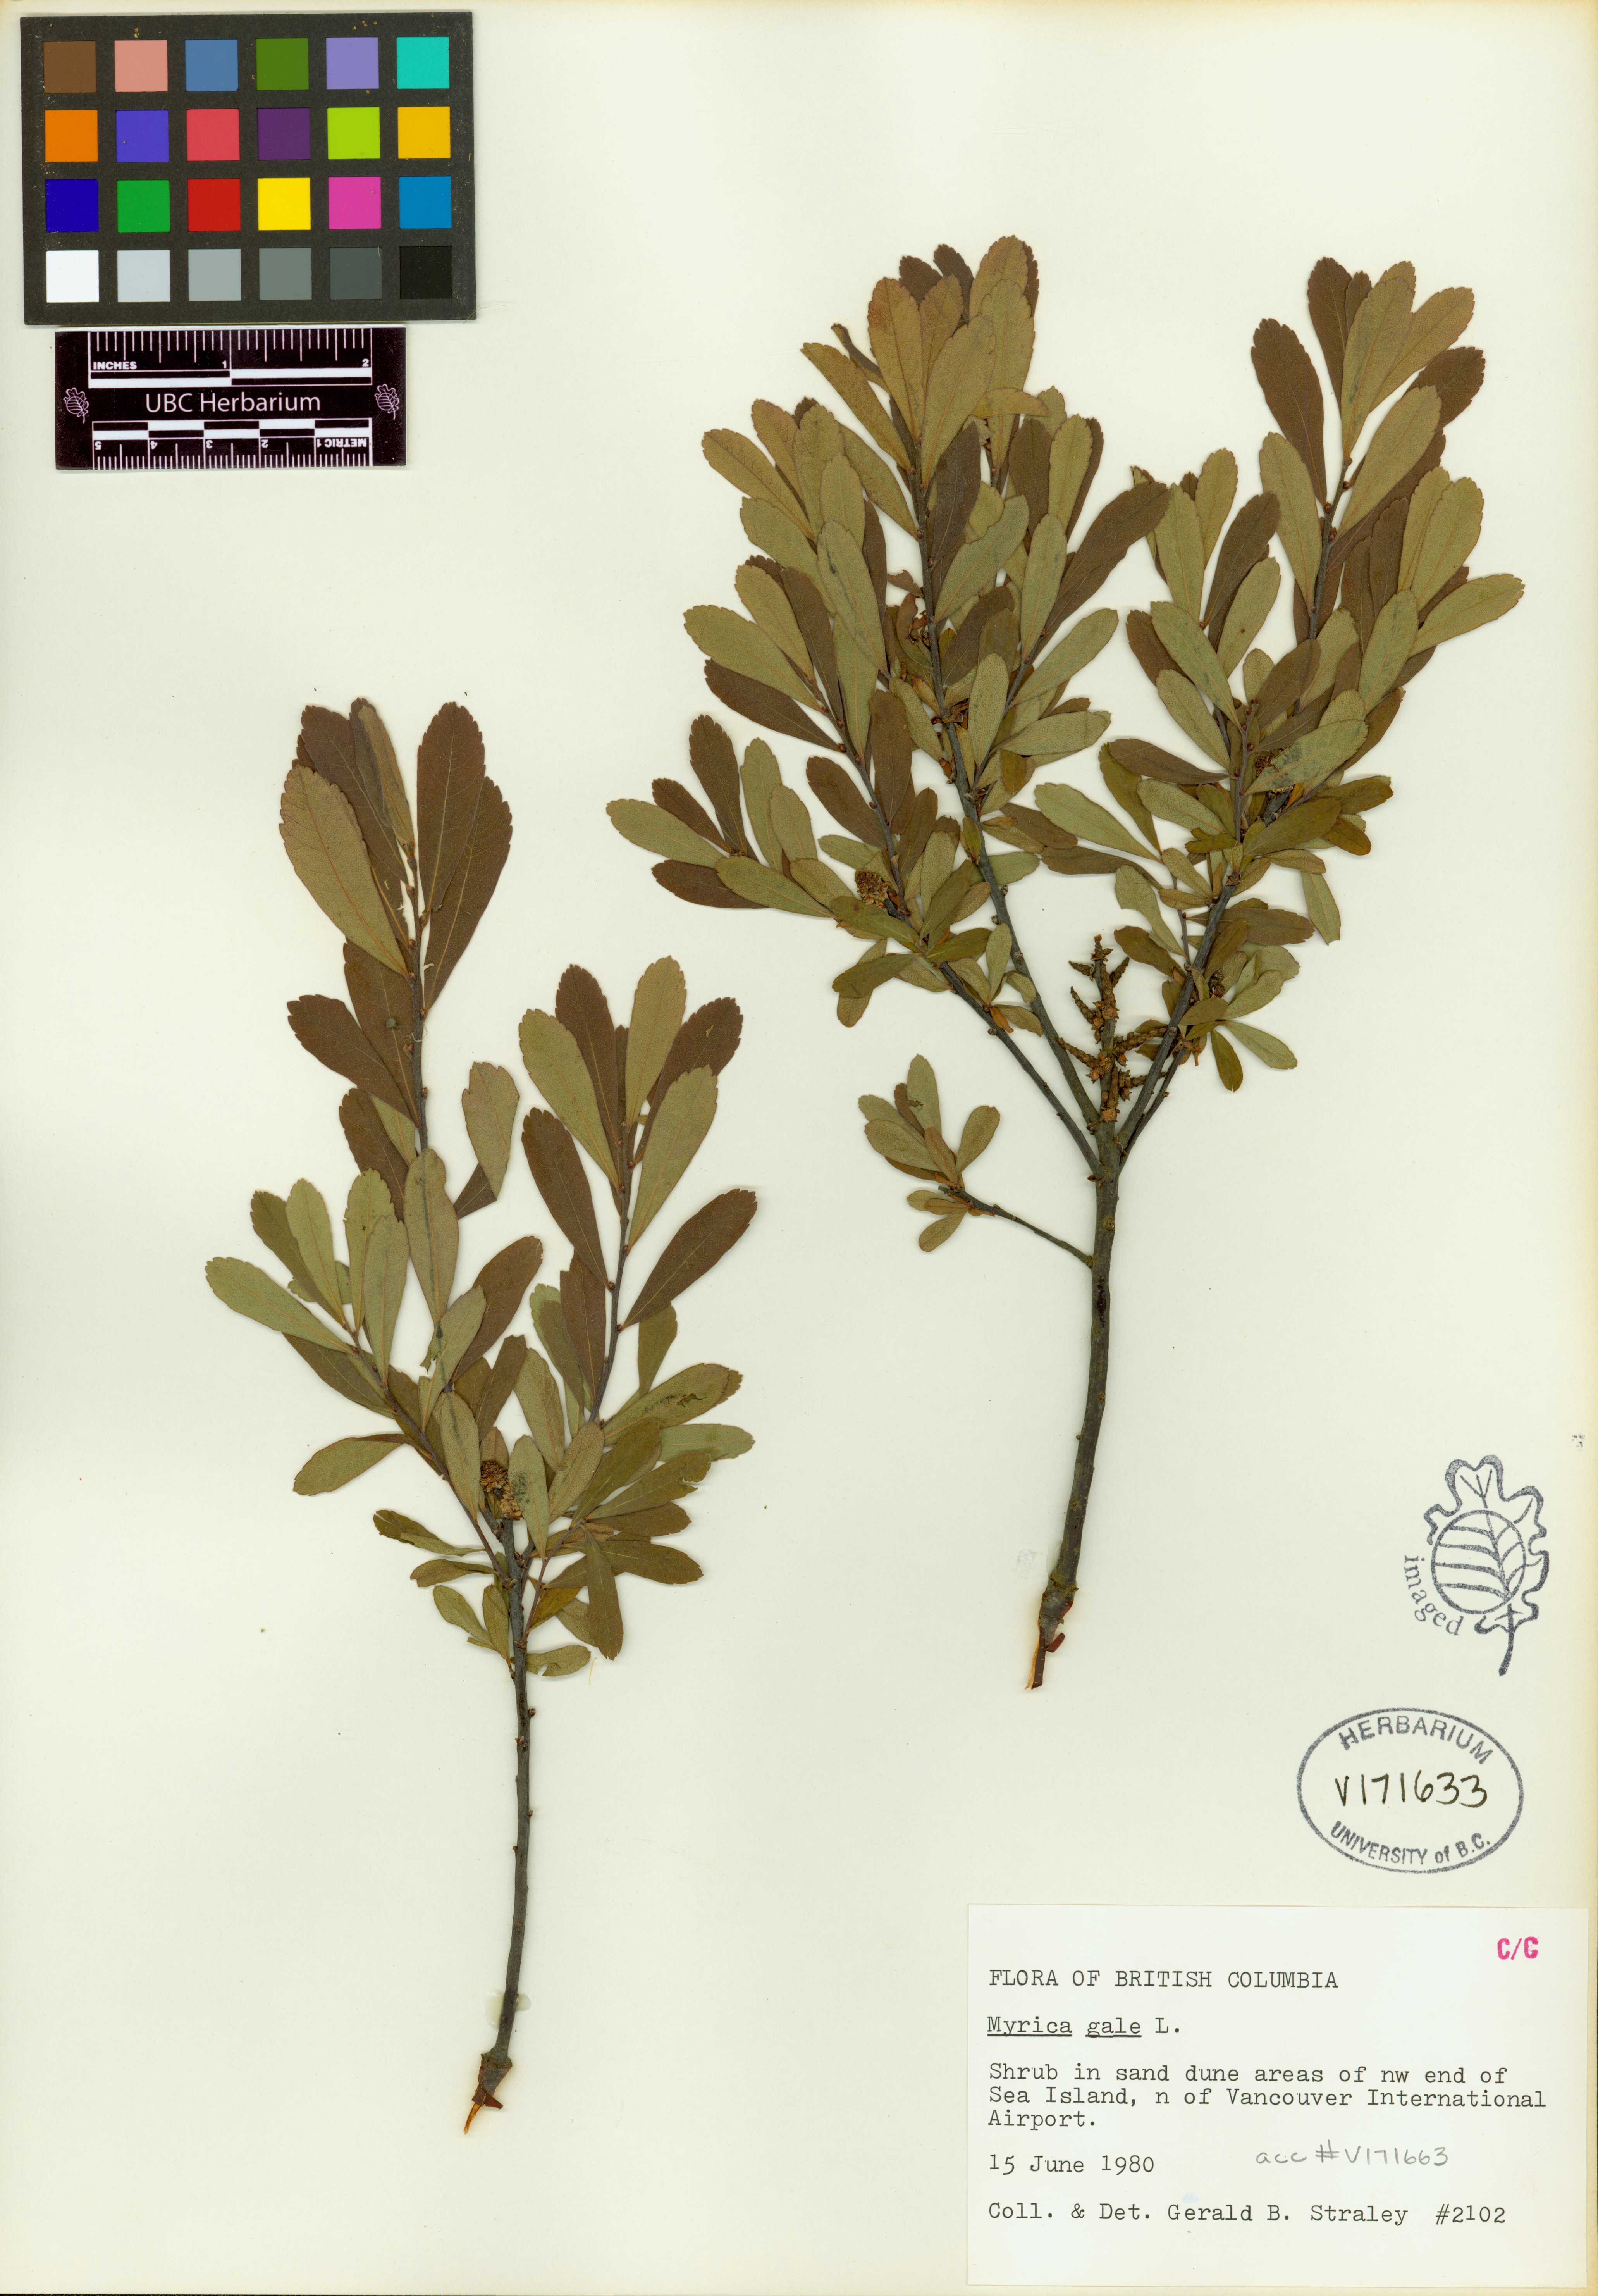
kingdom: Plantae
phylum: Tracheophyta
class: Magnoliopsida
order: Fagales
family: Myricaceae
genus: Myrica
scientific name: Myrica gale
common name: Sweet gale
